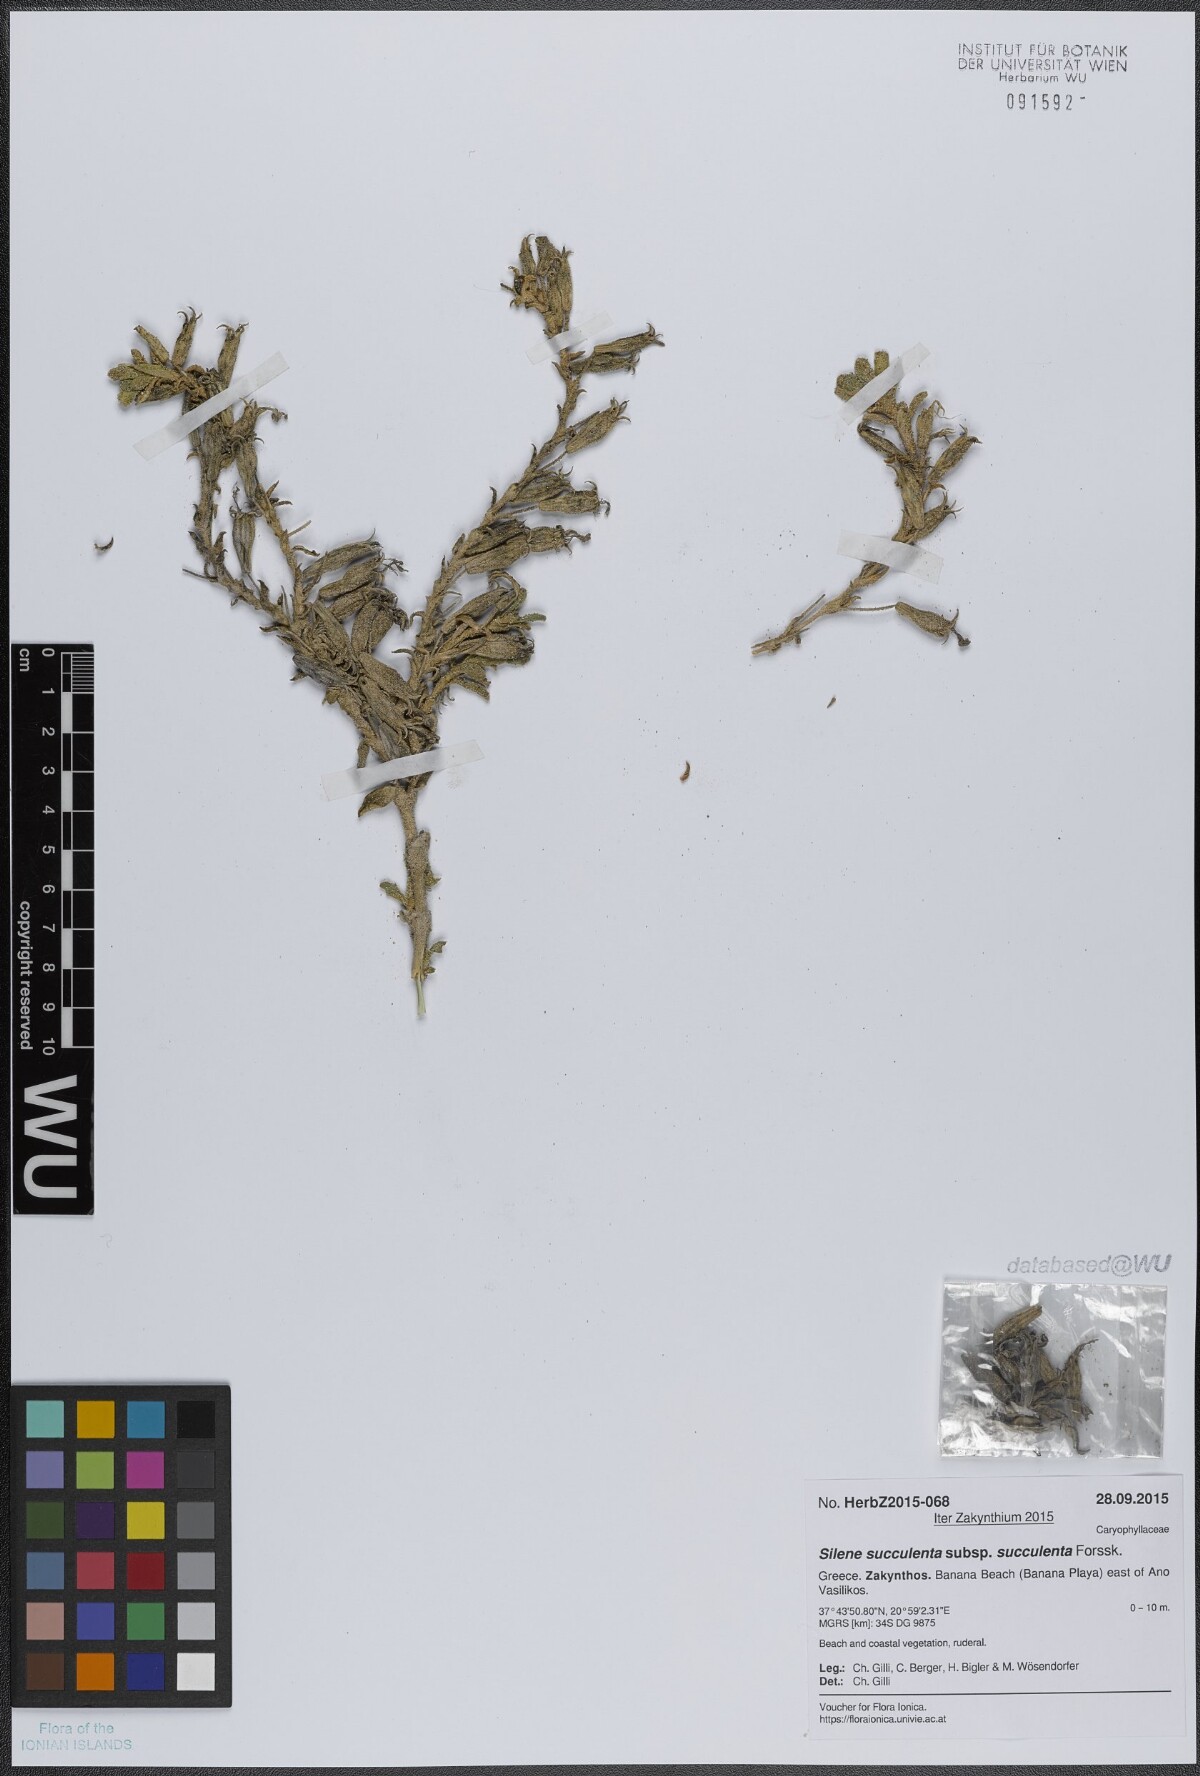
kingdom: Plantae
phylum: Tracheophyta
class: Magnoliopsida
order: Caryophyllales
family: Caryophyllaceae
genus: Silene
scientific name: Silene succulenta
